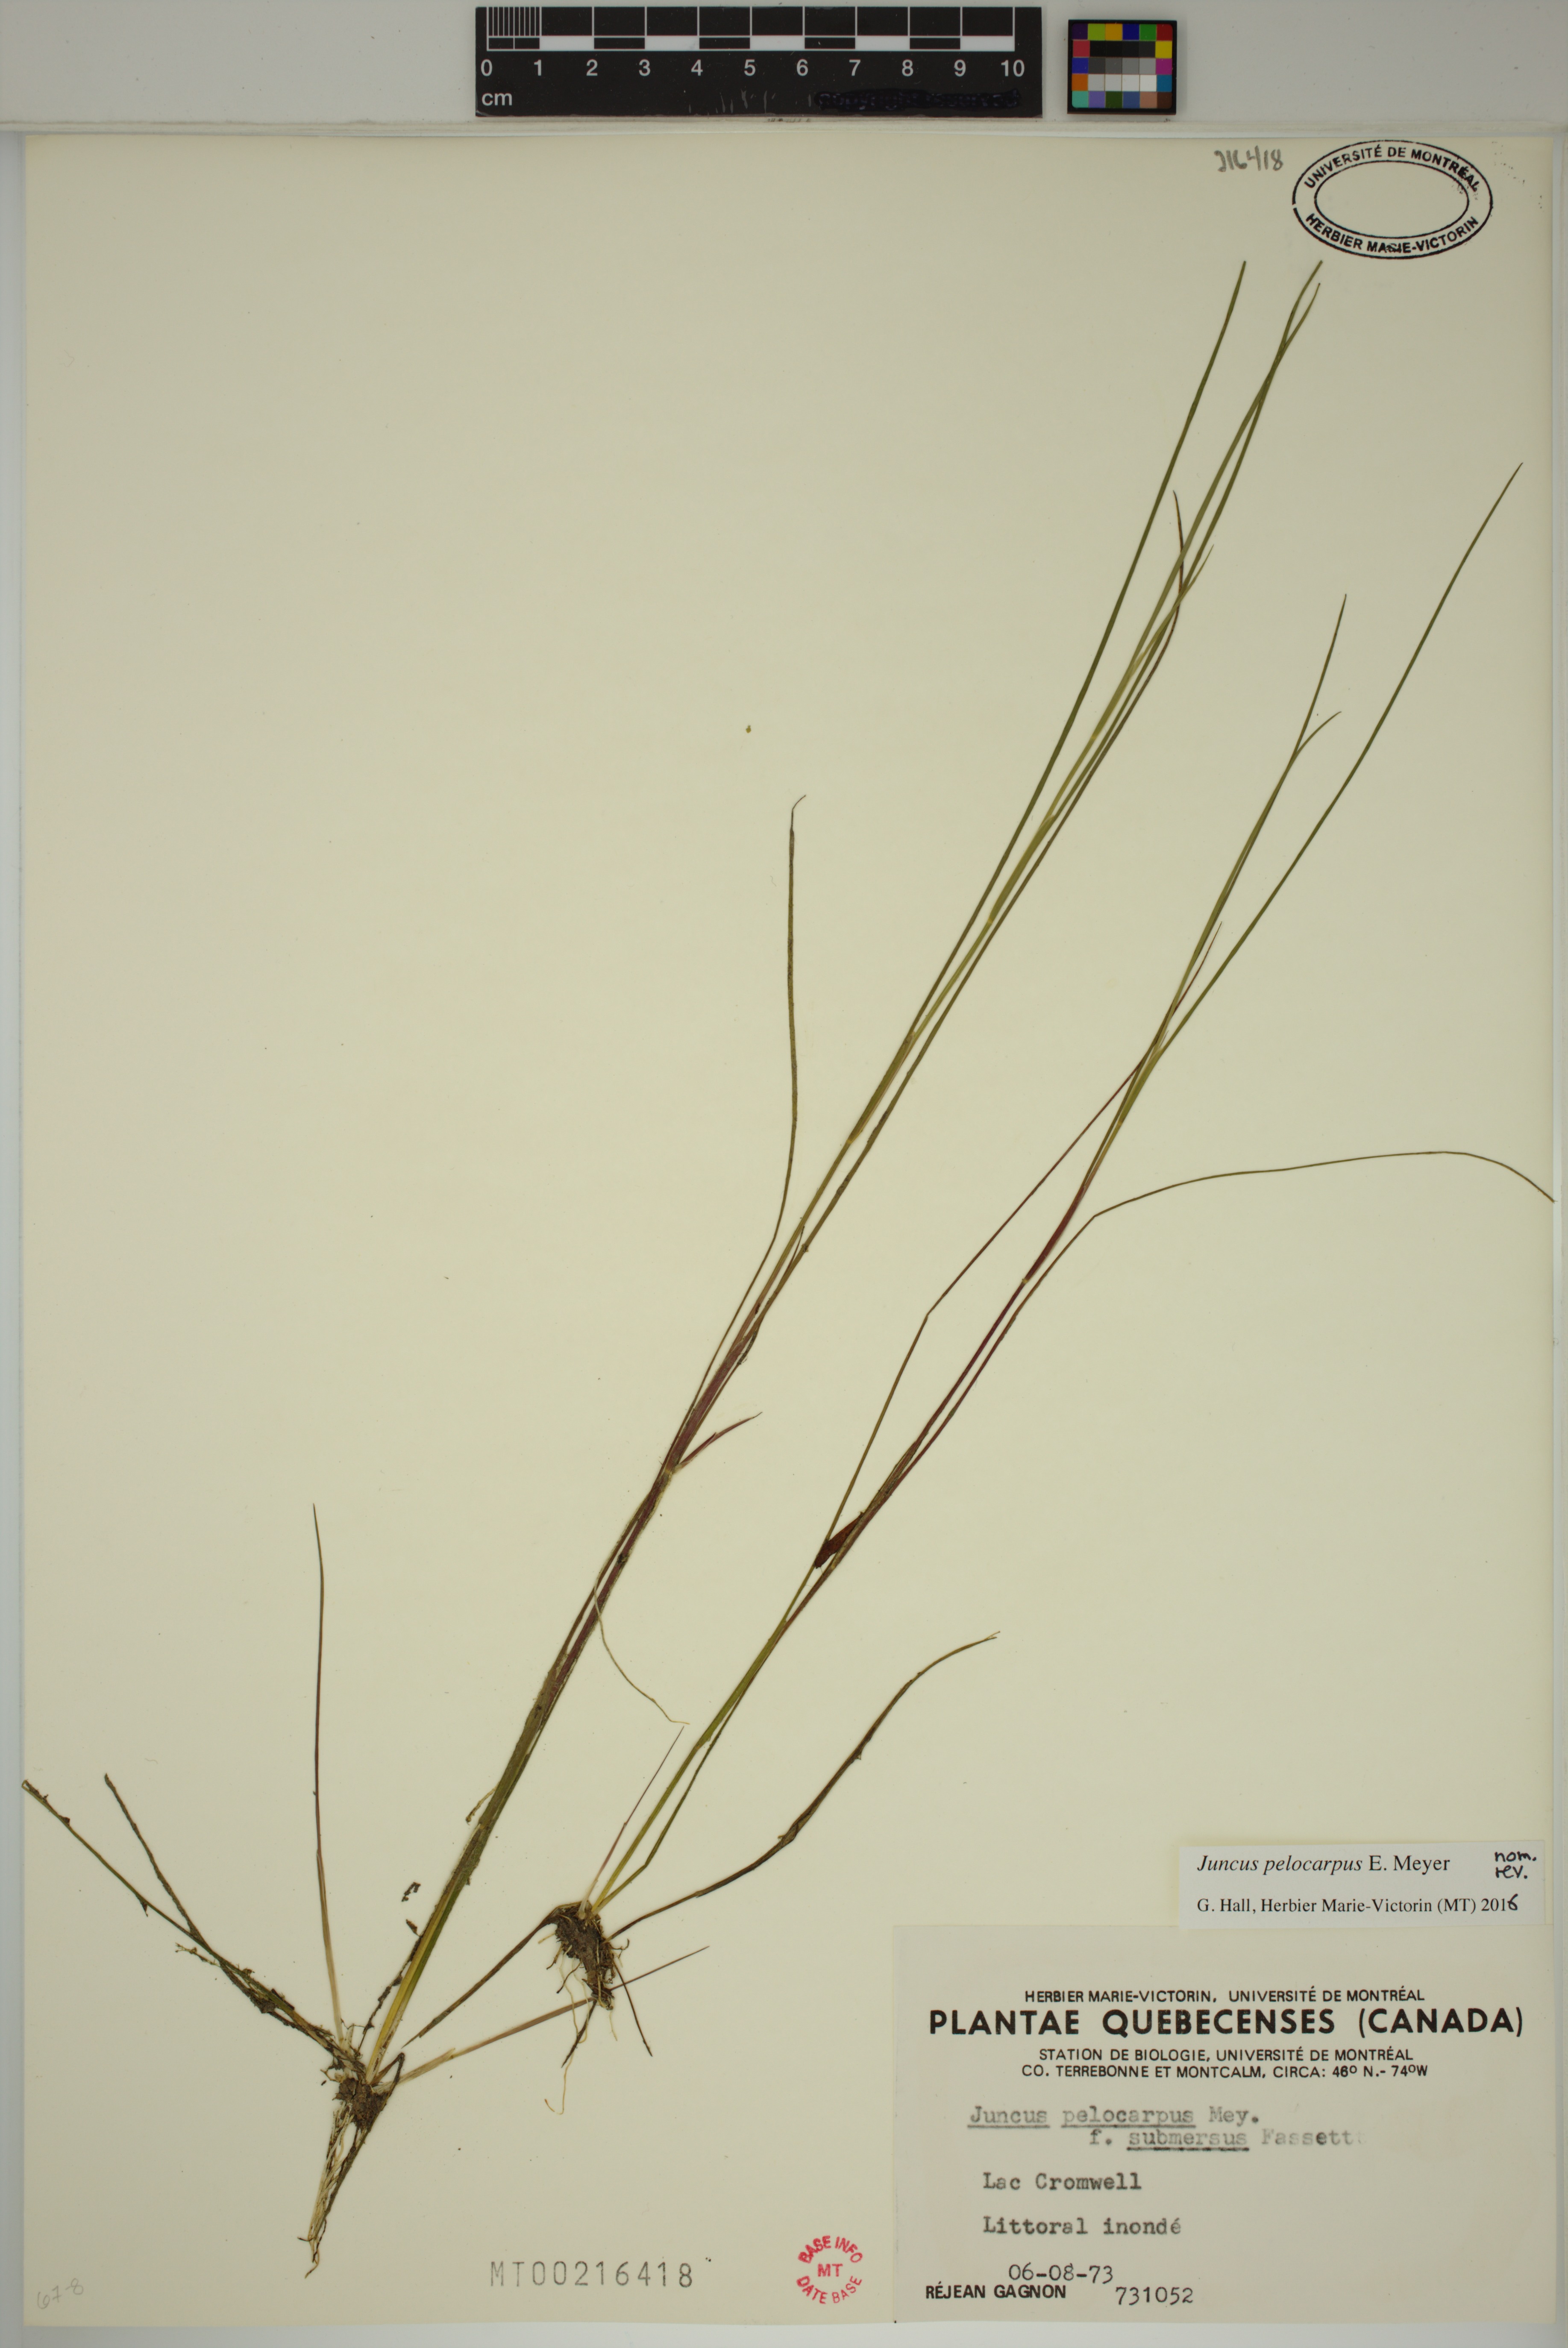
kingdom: Plantae
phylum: Tracheophyta
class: Liliopsida
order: Poales
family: Juncaceae
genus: Juncus
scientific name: Juncus pelocarpus
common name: Brown-fruited rush
